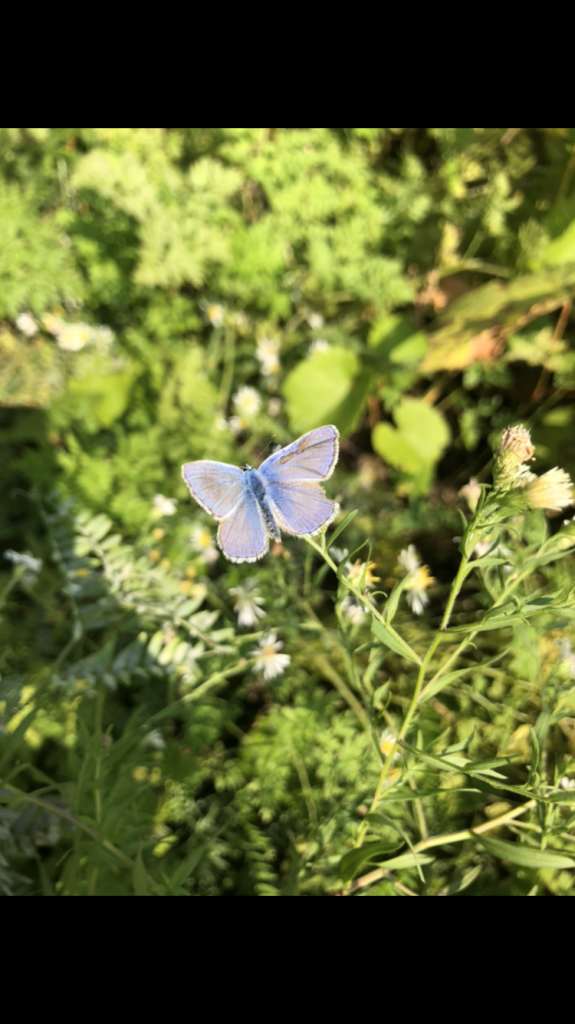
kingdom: Animalia
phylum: Arthropoda
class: Insecta
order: Lepidoptera
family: Lycaenidae
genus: Polyommatus
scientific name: Polyommatus icarus
